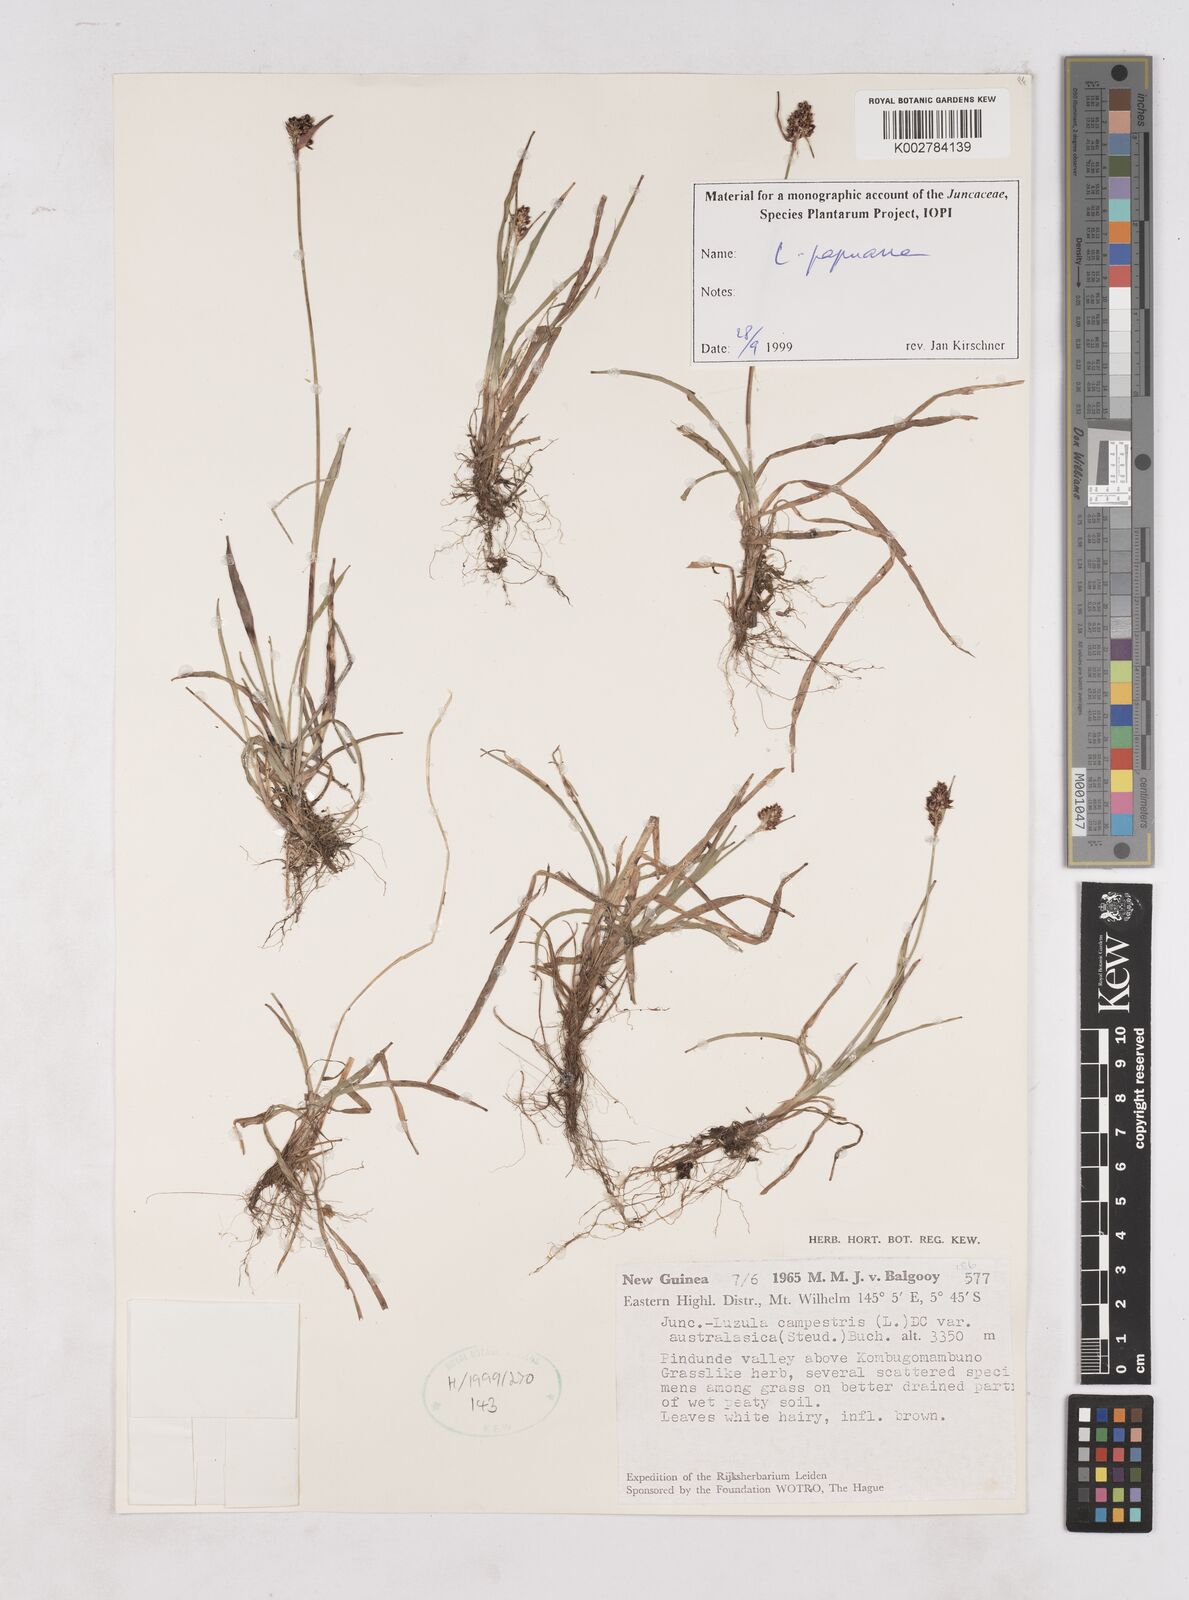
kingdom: Plantae
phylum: Tracheophyta
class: Liliopsida
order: Poales
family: Juncaceae
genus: Luzula
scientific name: Luzula papuana
